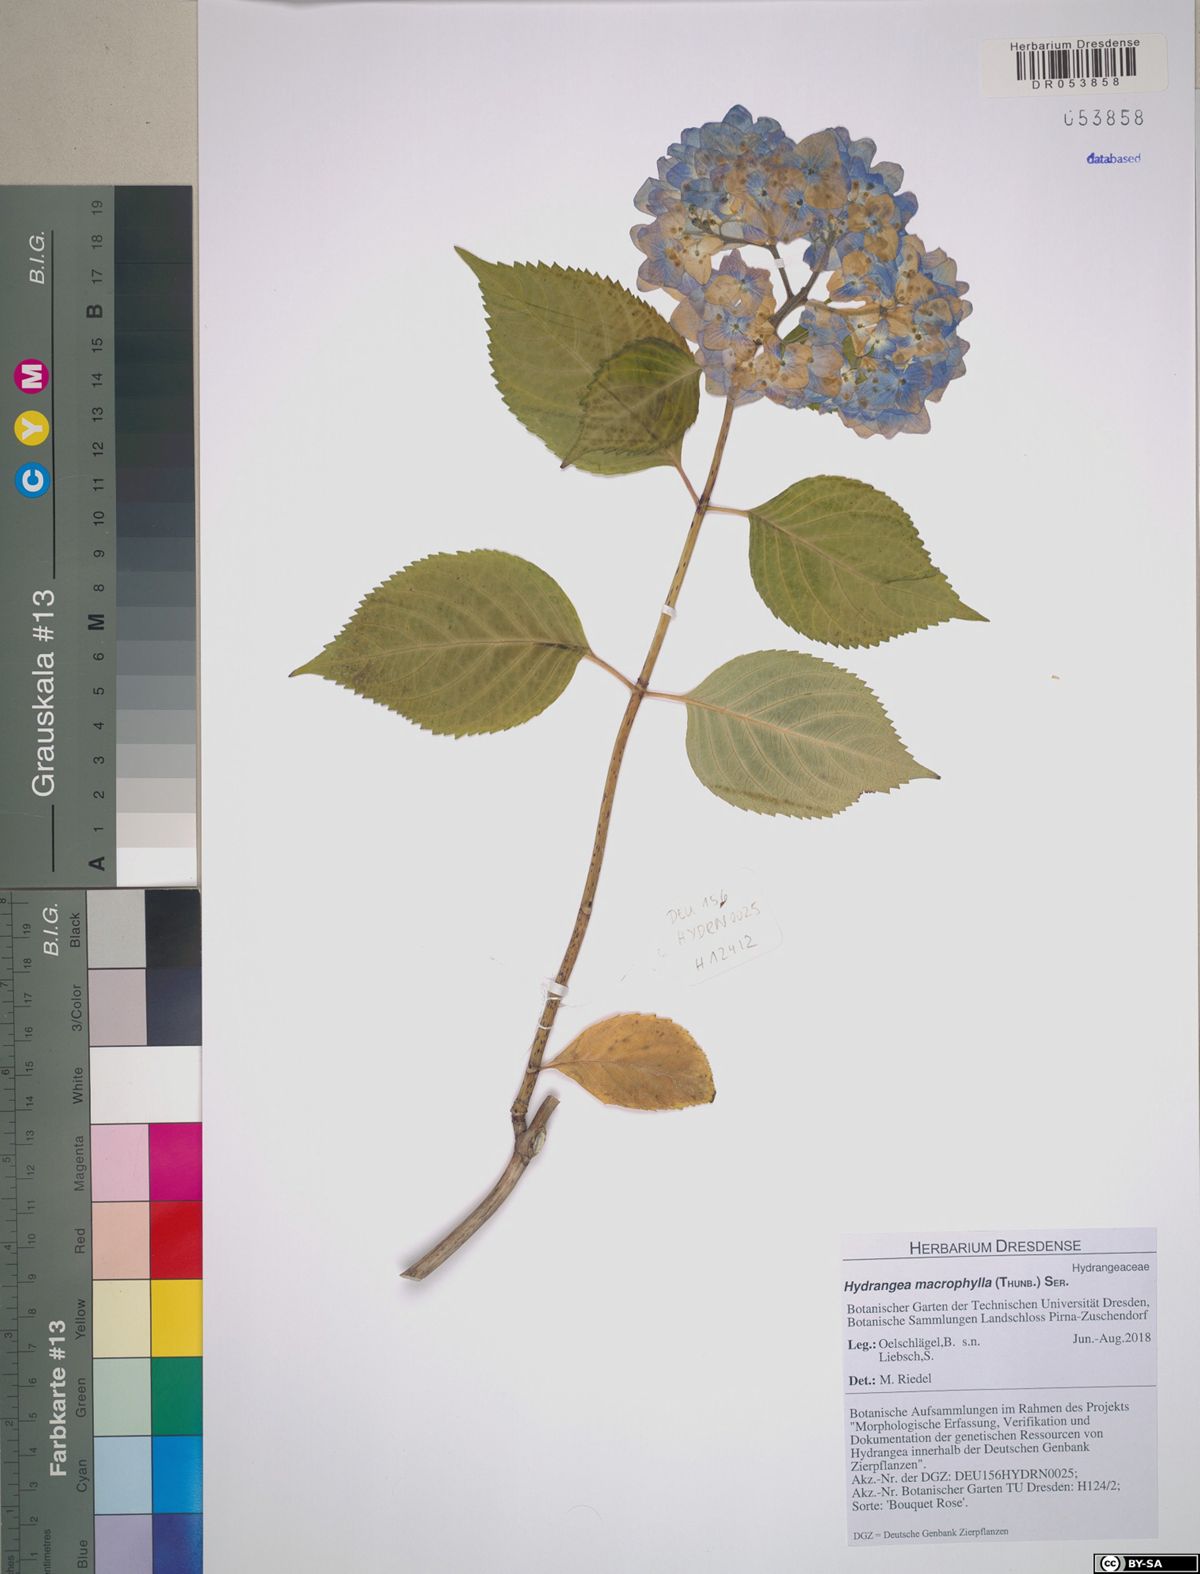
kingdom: Plantae
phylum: Tracheophyta
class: Magnoliopsida
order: Cornales
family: Hydrangeaceae
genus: Hydrangea
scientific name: Hydrangea macrophylla
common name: Hydrangea
